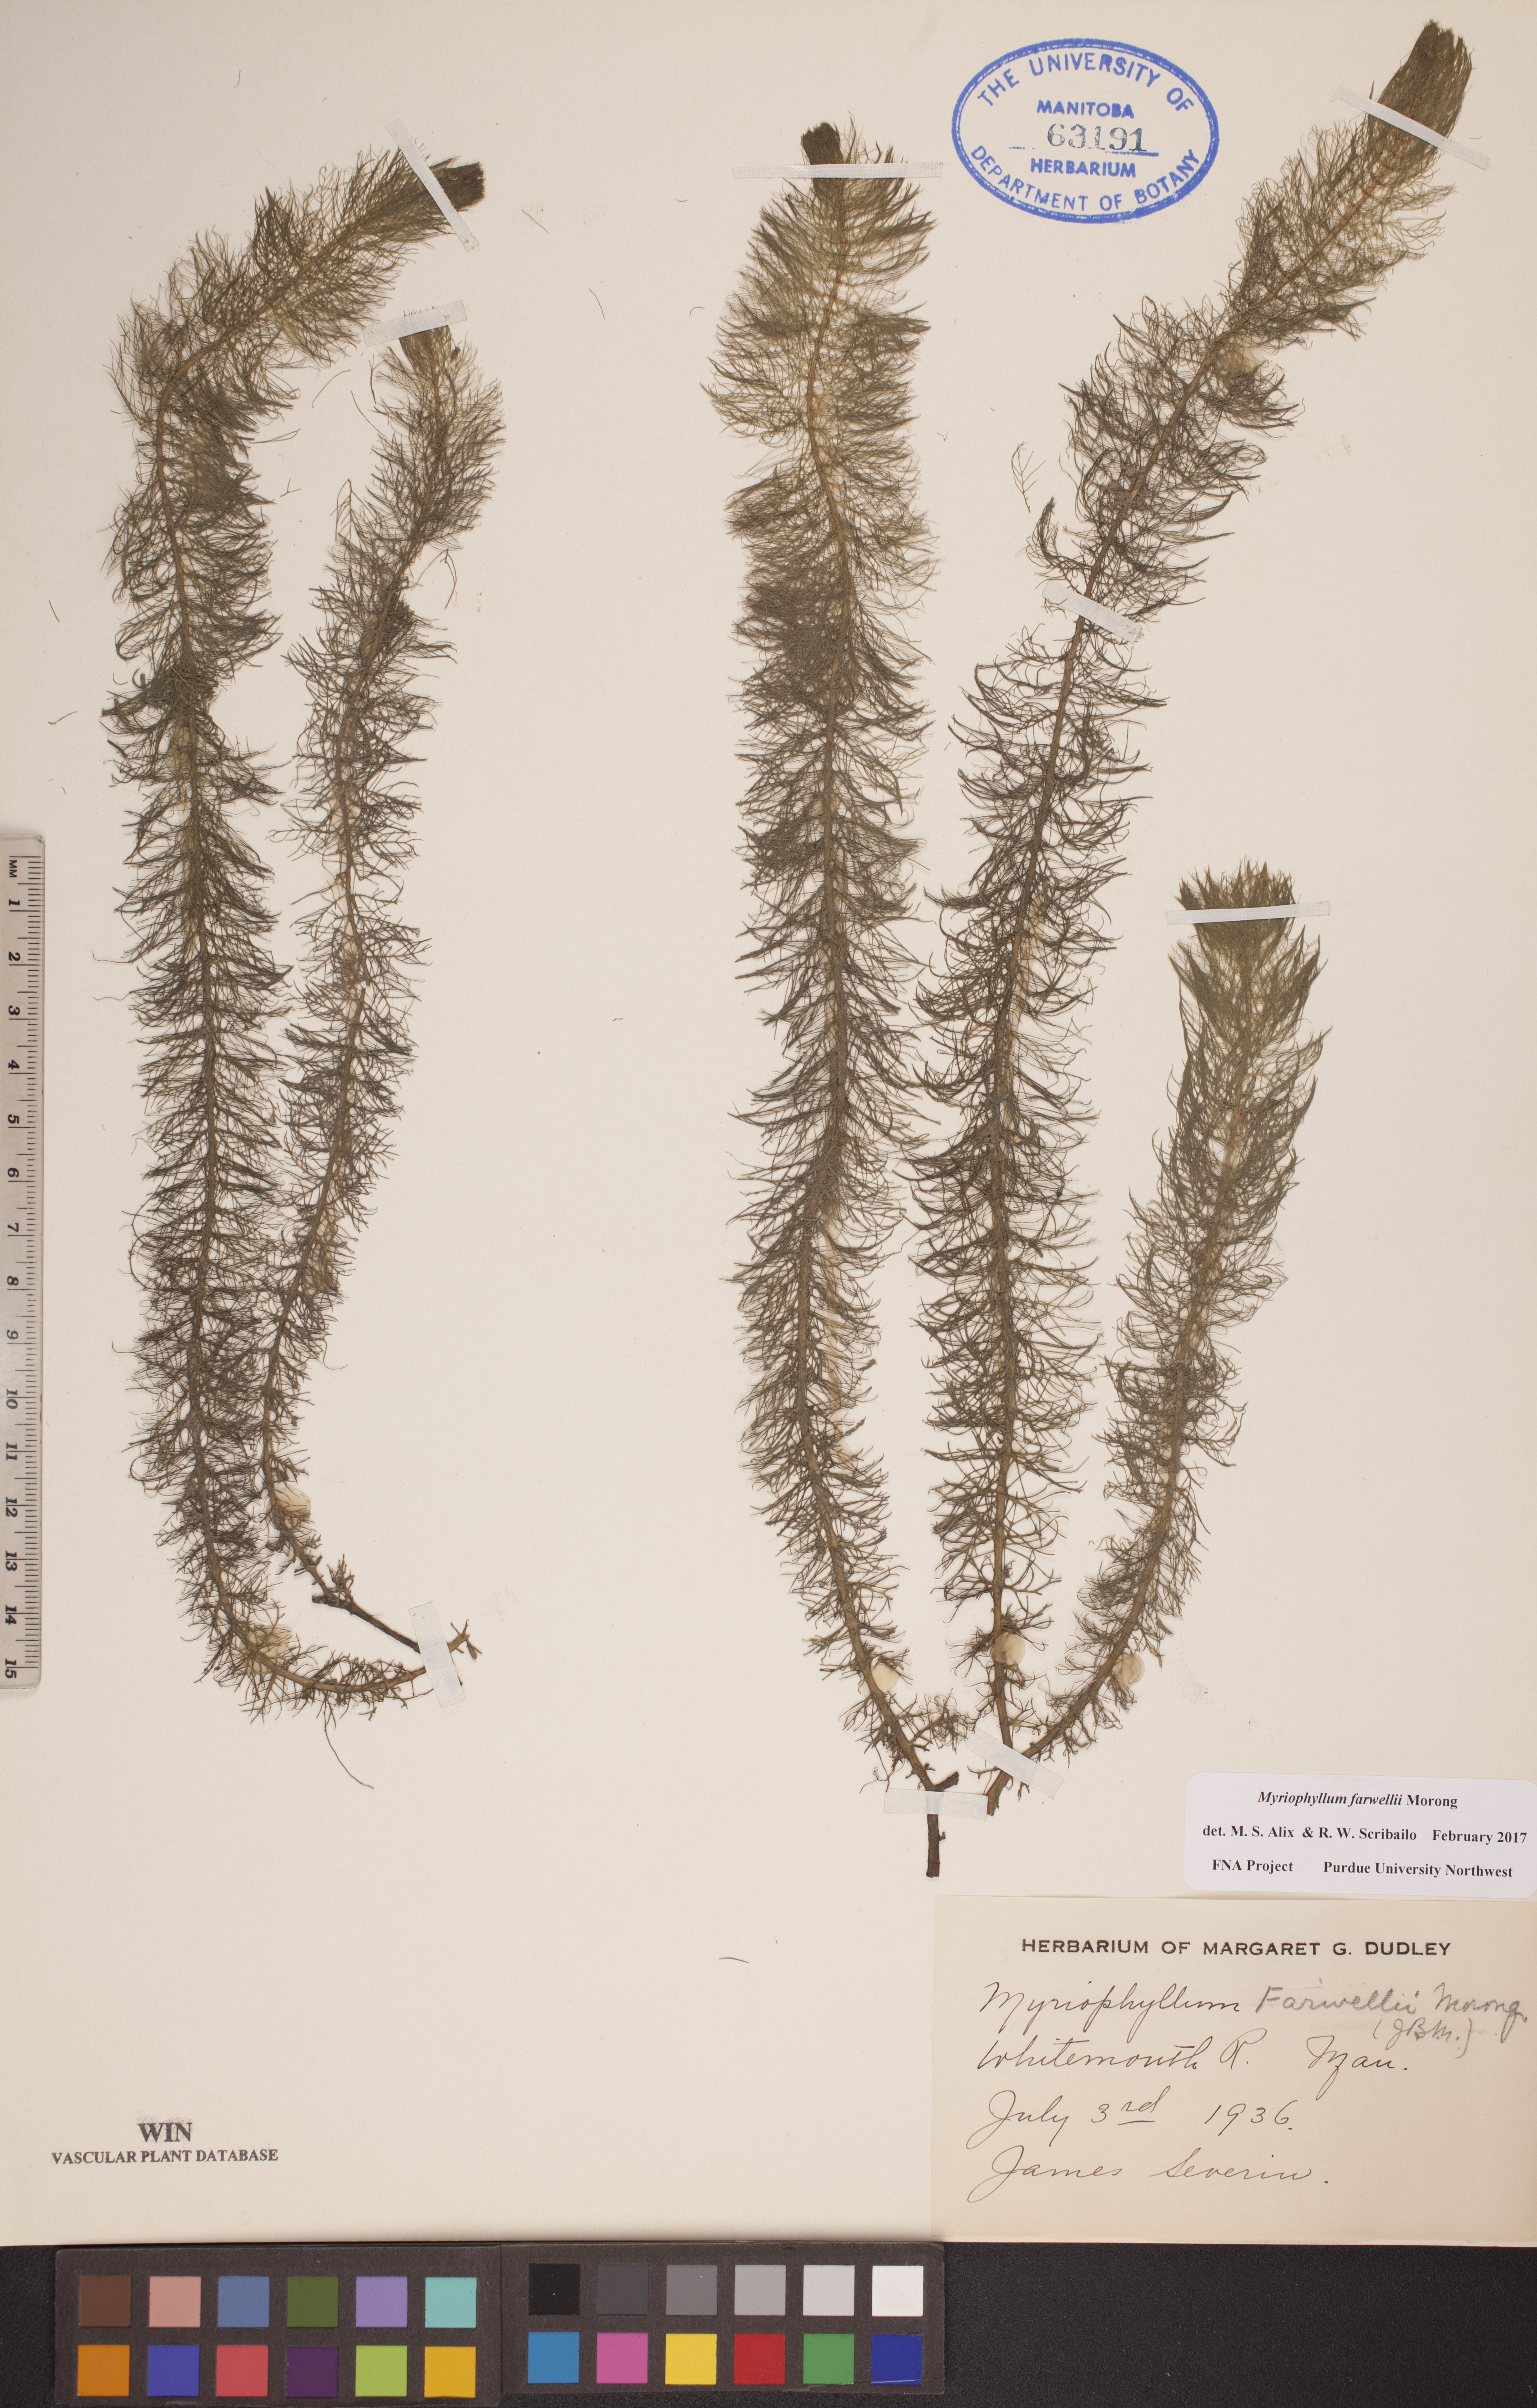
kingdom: Plantae
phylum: Tracheophyta
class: Magnoliopsida
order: Saxifragales
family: Haloragaceae
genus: Myriophyllum
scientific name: Myriophyllum farwellii
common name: Farwell's water-milfoil
